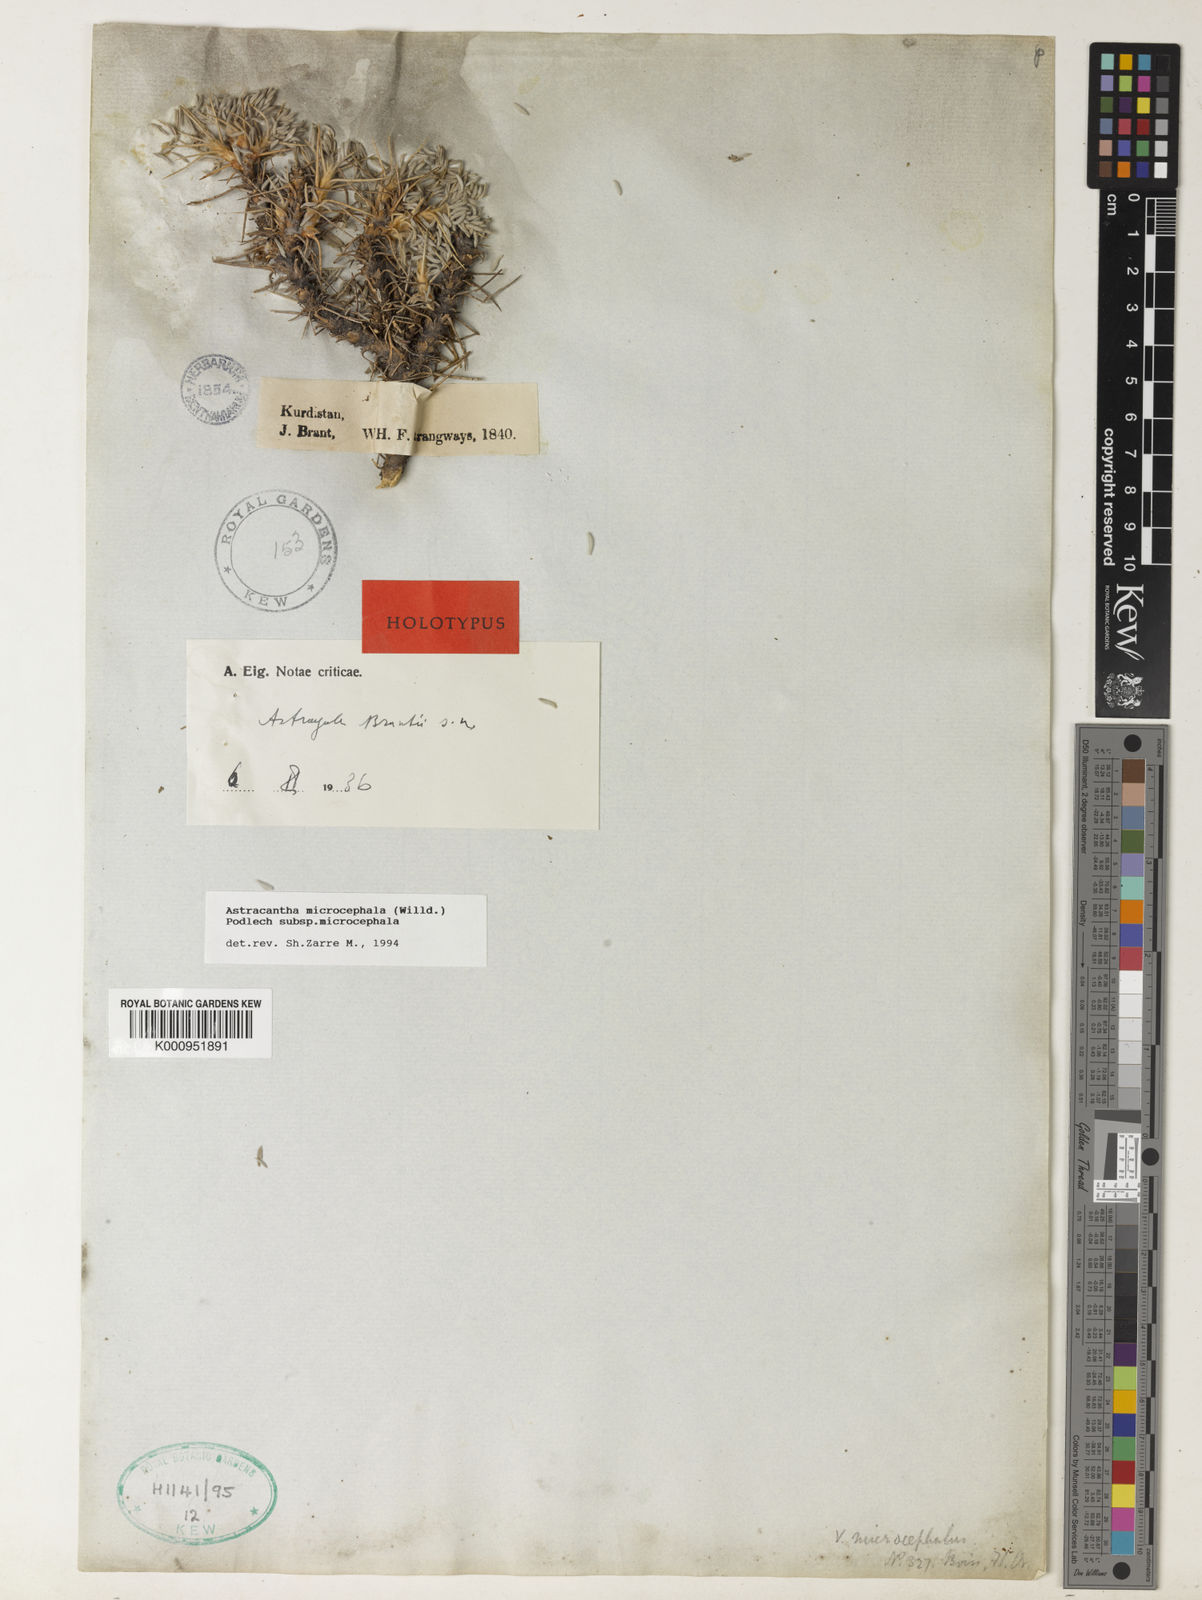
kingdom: Plantae
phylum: Tracheophyta
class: Magnoliopsida
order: Fabales
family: Fabaceae
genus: Astragalus
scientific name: Astragalus microcephalus
